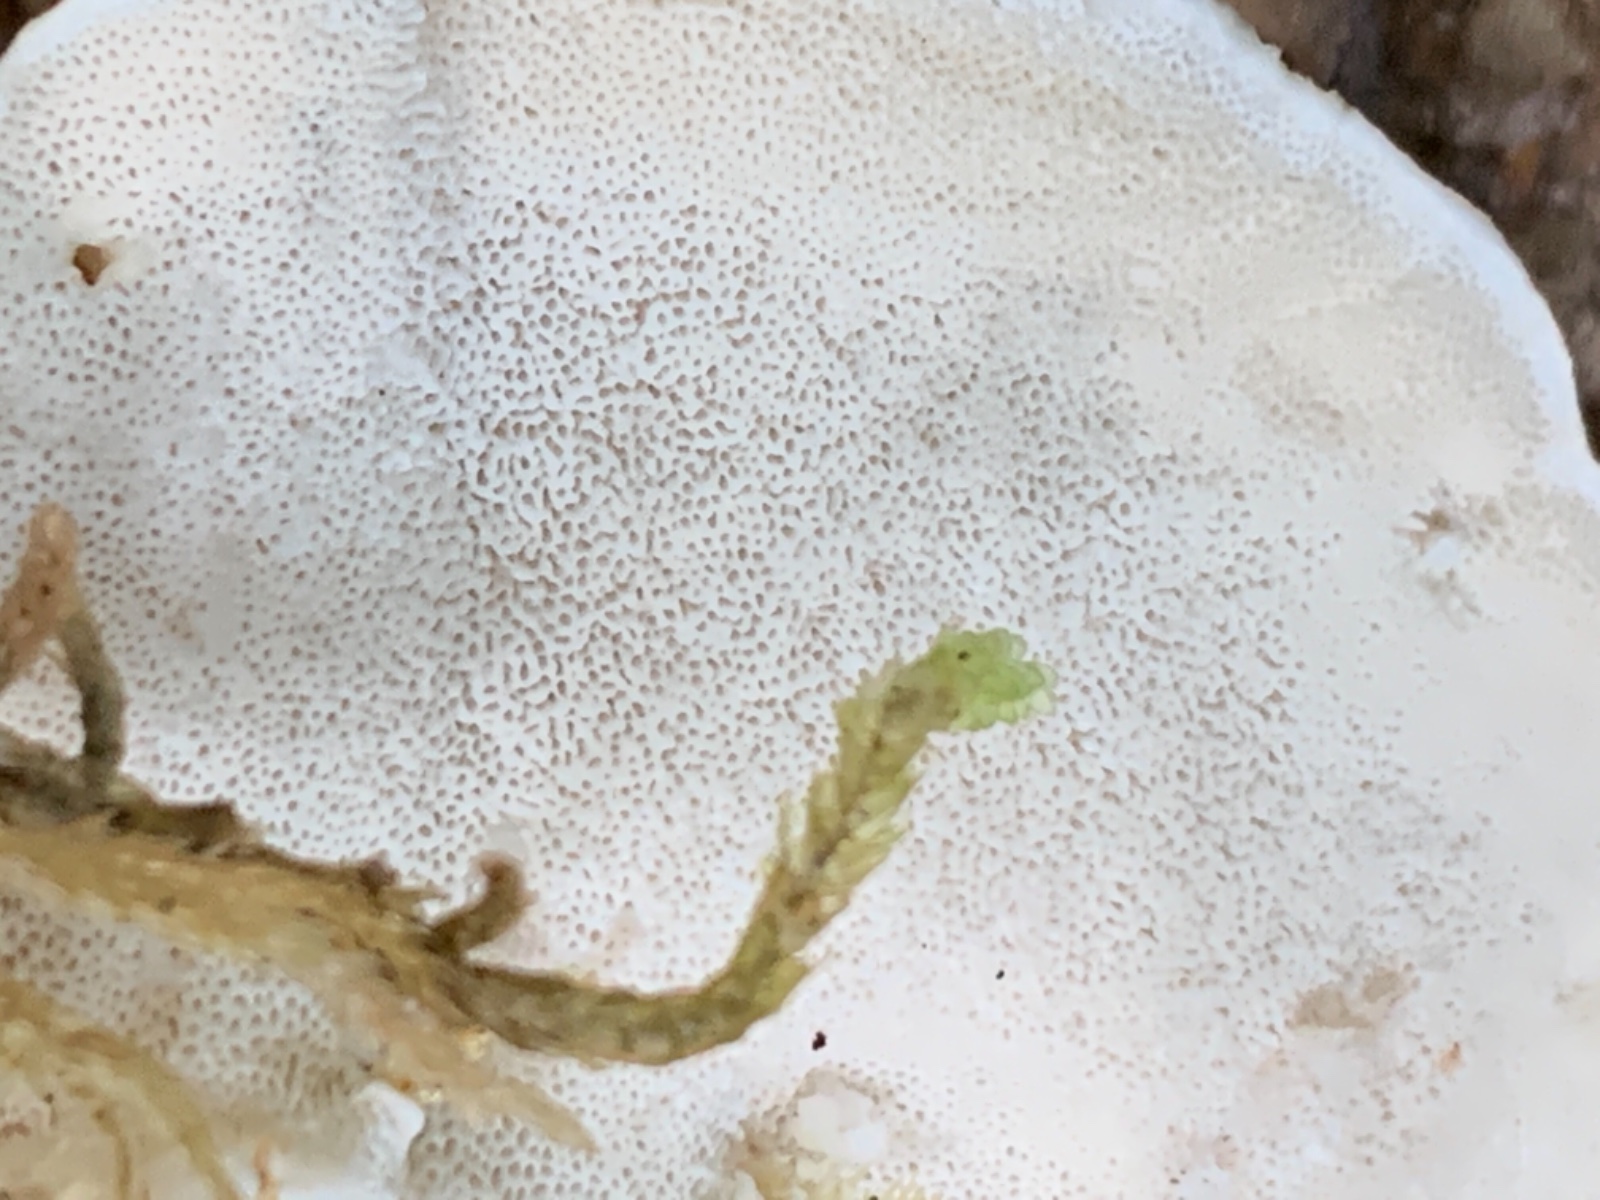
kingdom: Fungi
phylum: Basidiomycota
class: Agaricomycetes
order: Polyporales
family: Incrustoporiaceae
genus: Tyromyces
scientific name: Tyromyces lacteus
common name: mælkehvid kødporesvamp
